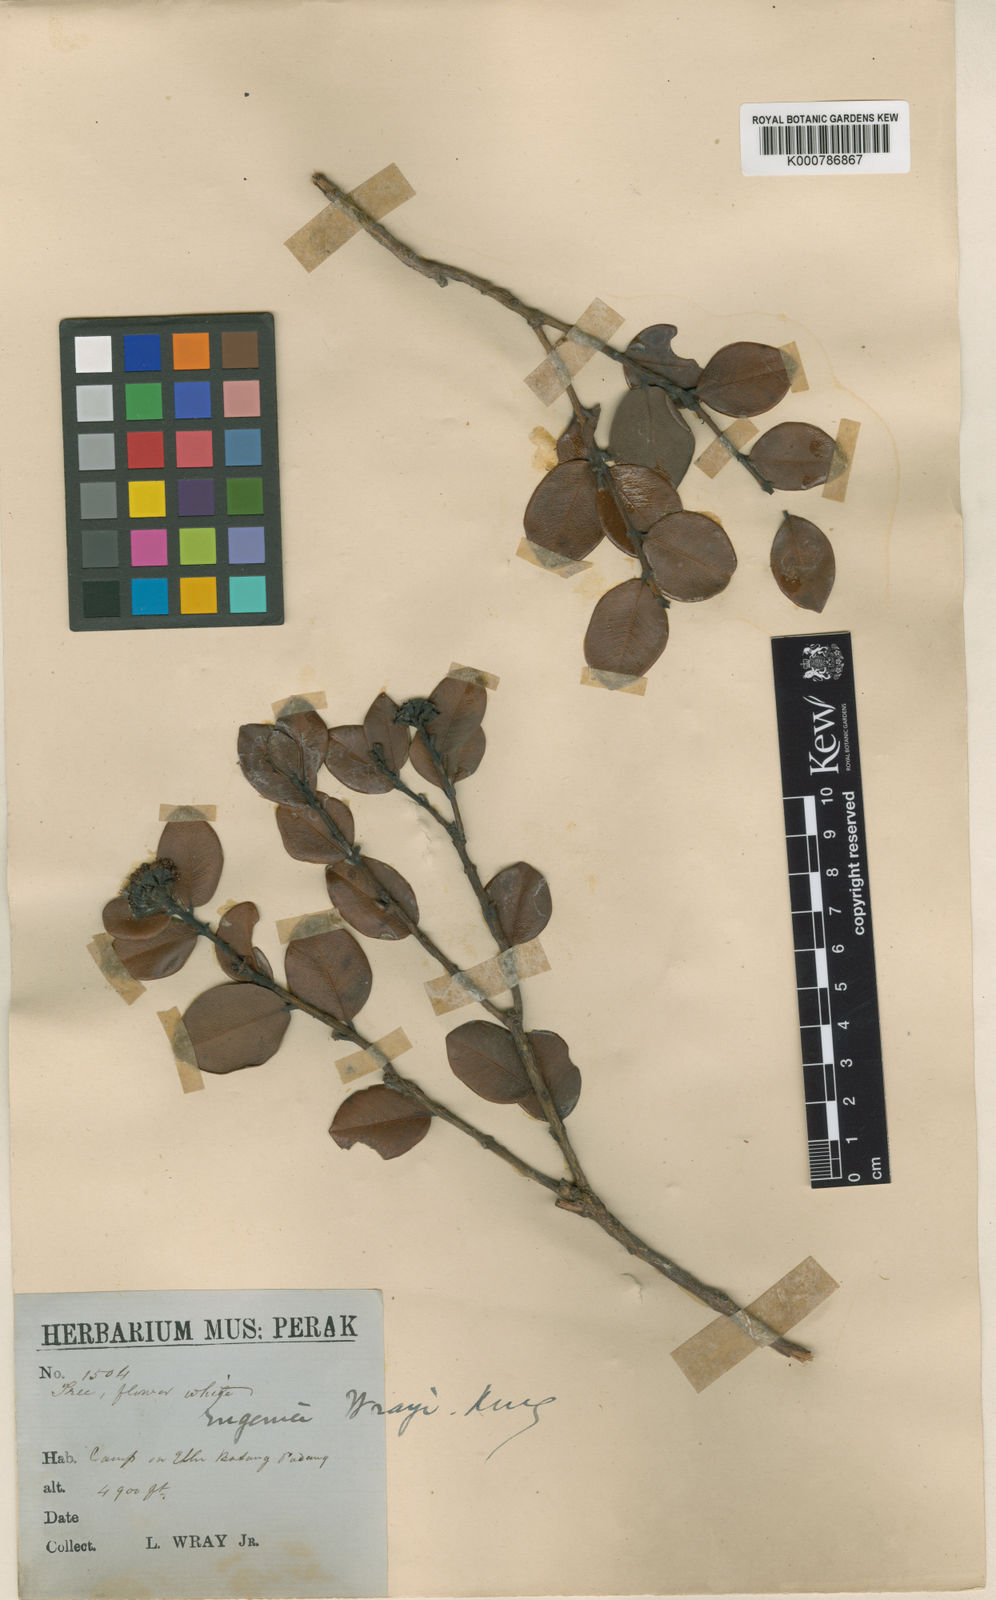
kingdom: Plantae
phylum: Tracheophyta
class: Magnoliopsida
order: Myrtales
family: Myrtaceae
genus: Syzygium
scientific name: Syzygium wrayi
